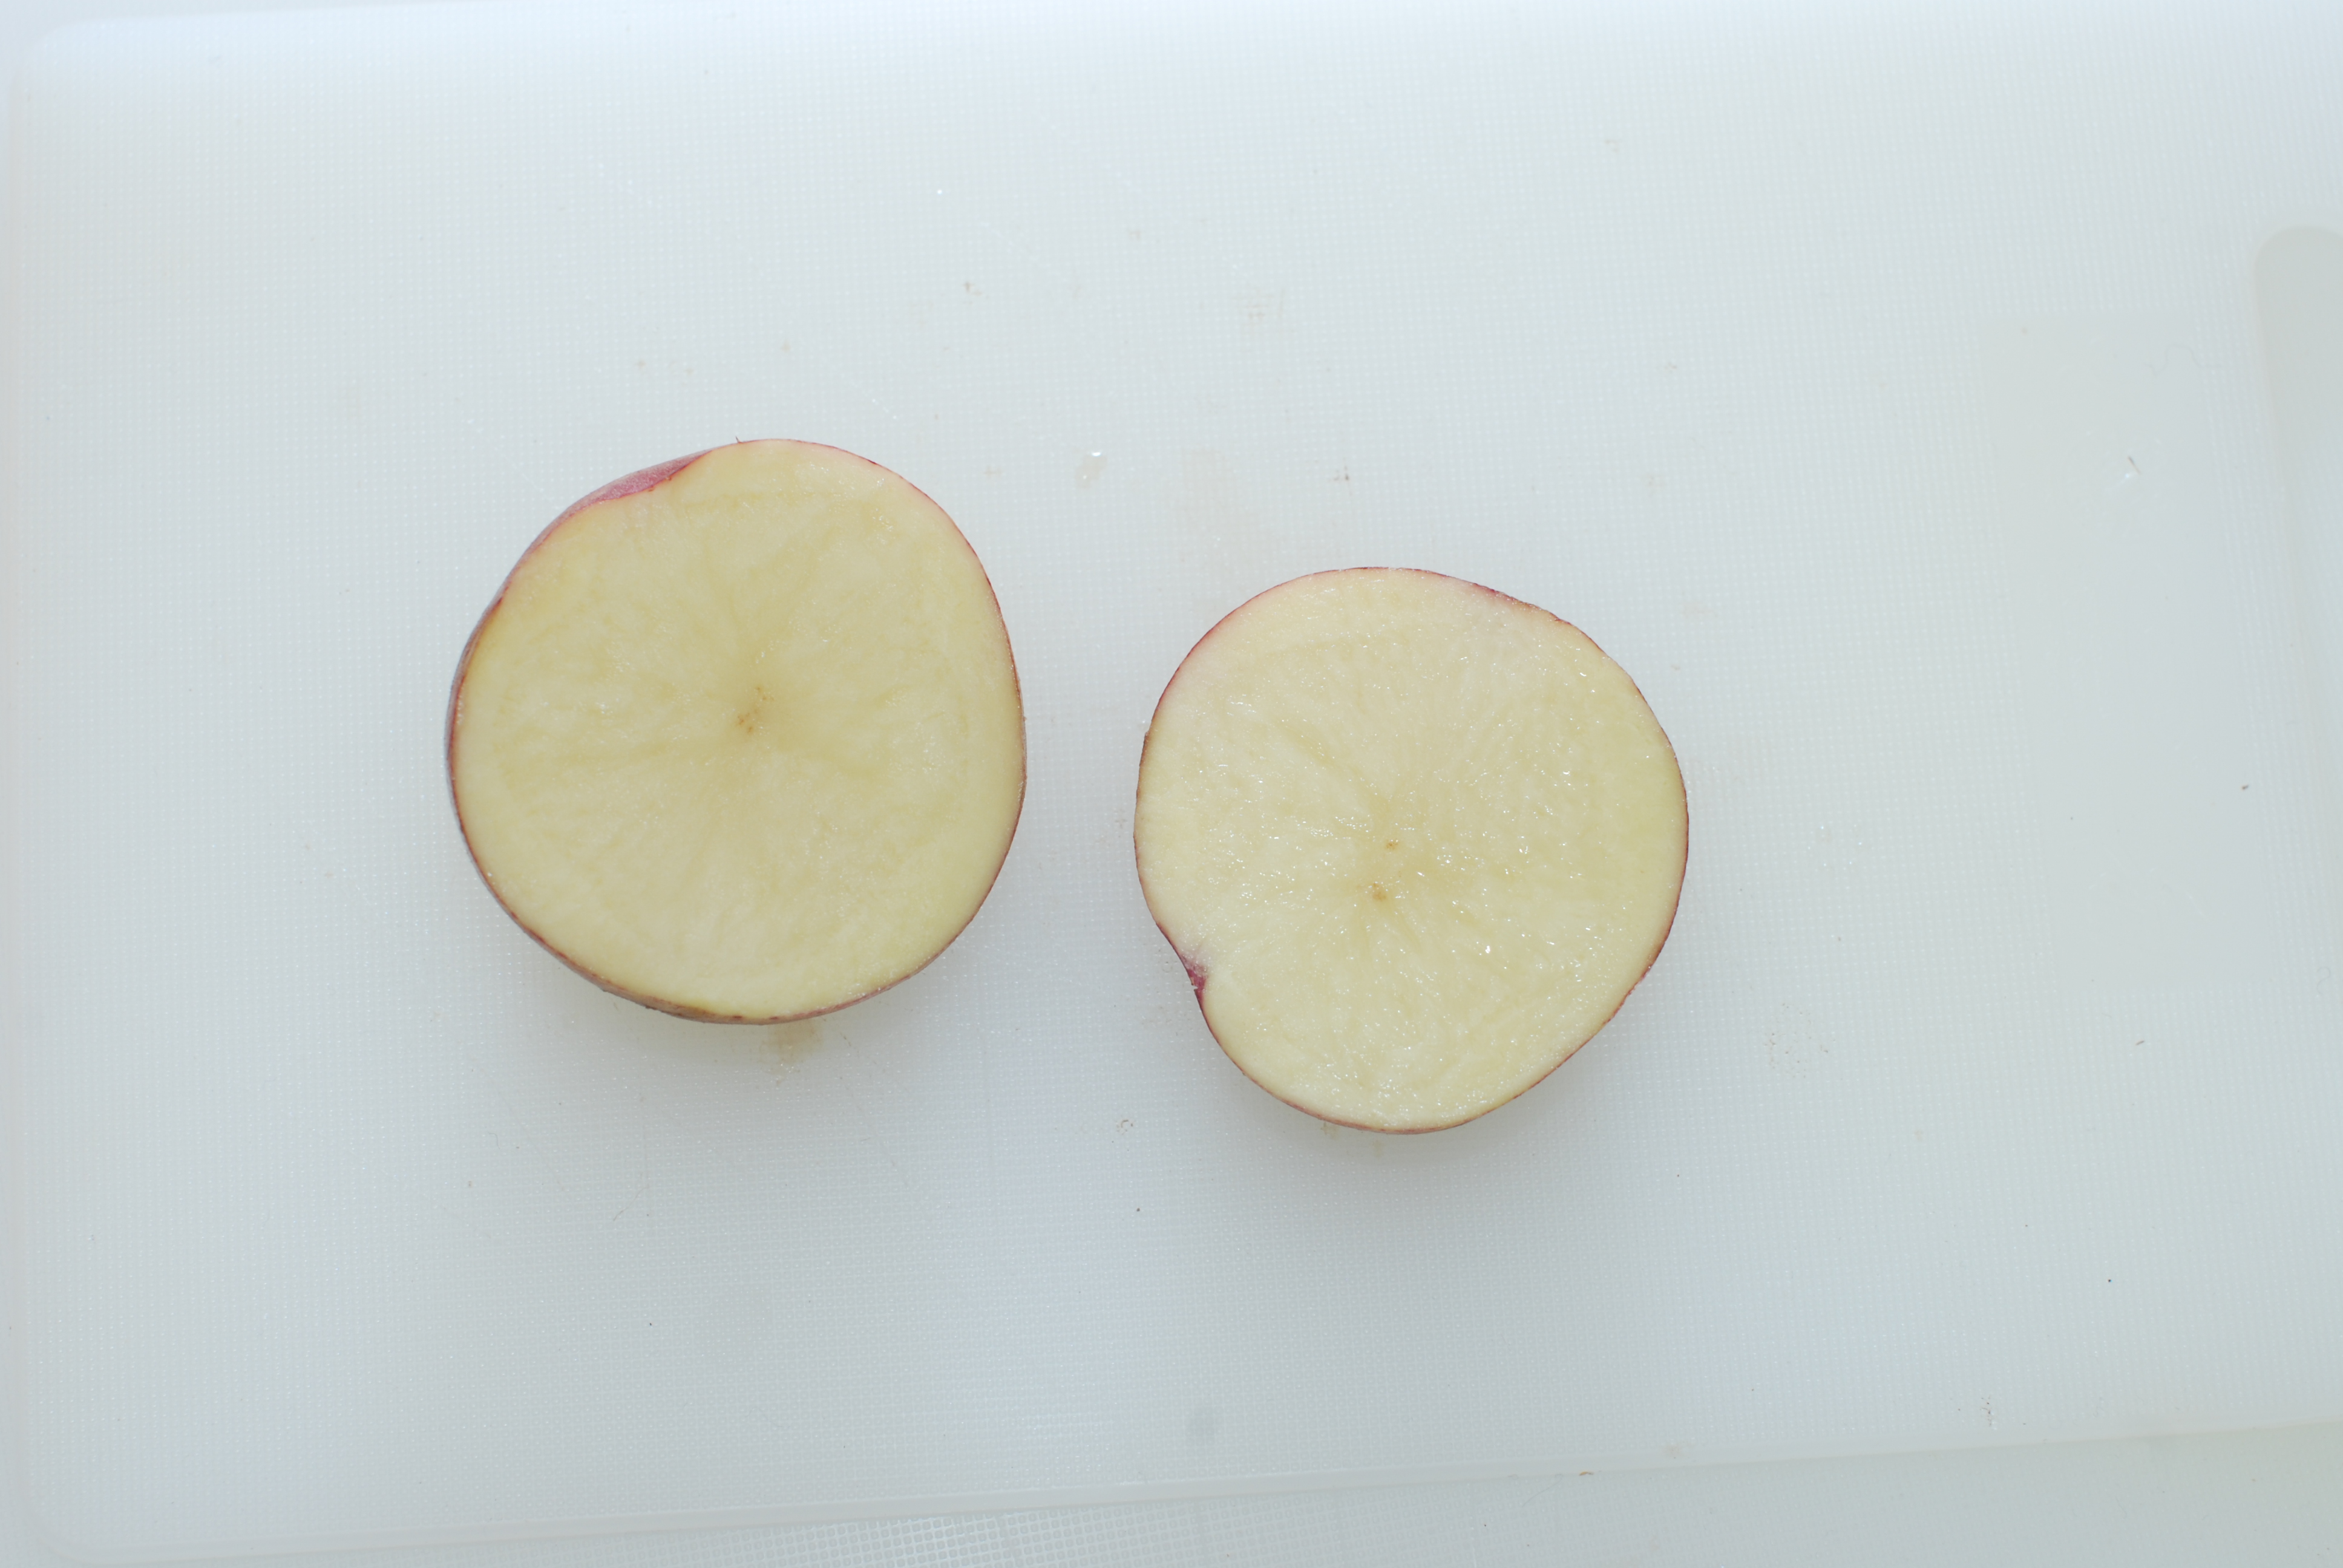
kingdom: Plantae
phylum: Tracheophyta
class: Magnoliopsida
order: Solanales
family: Solanaceae
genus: Solanum
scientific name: Solanum tuberosum
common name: Potato
